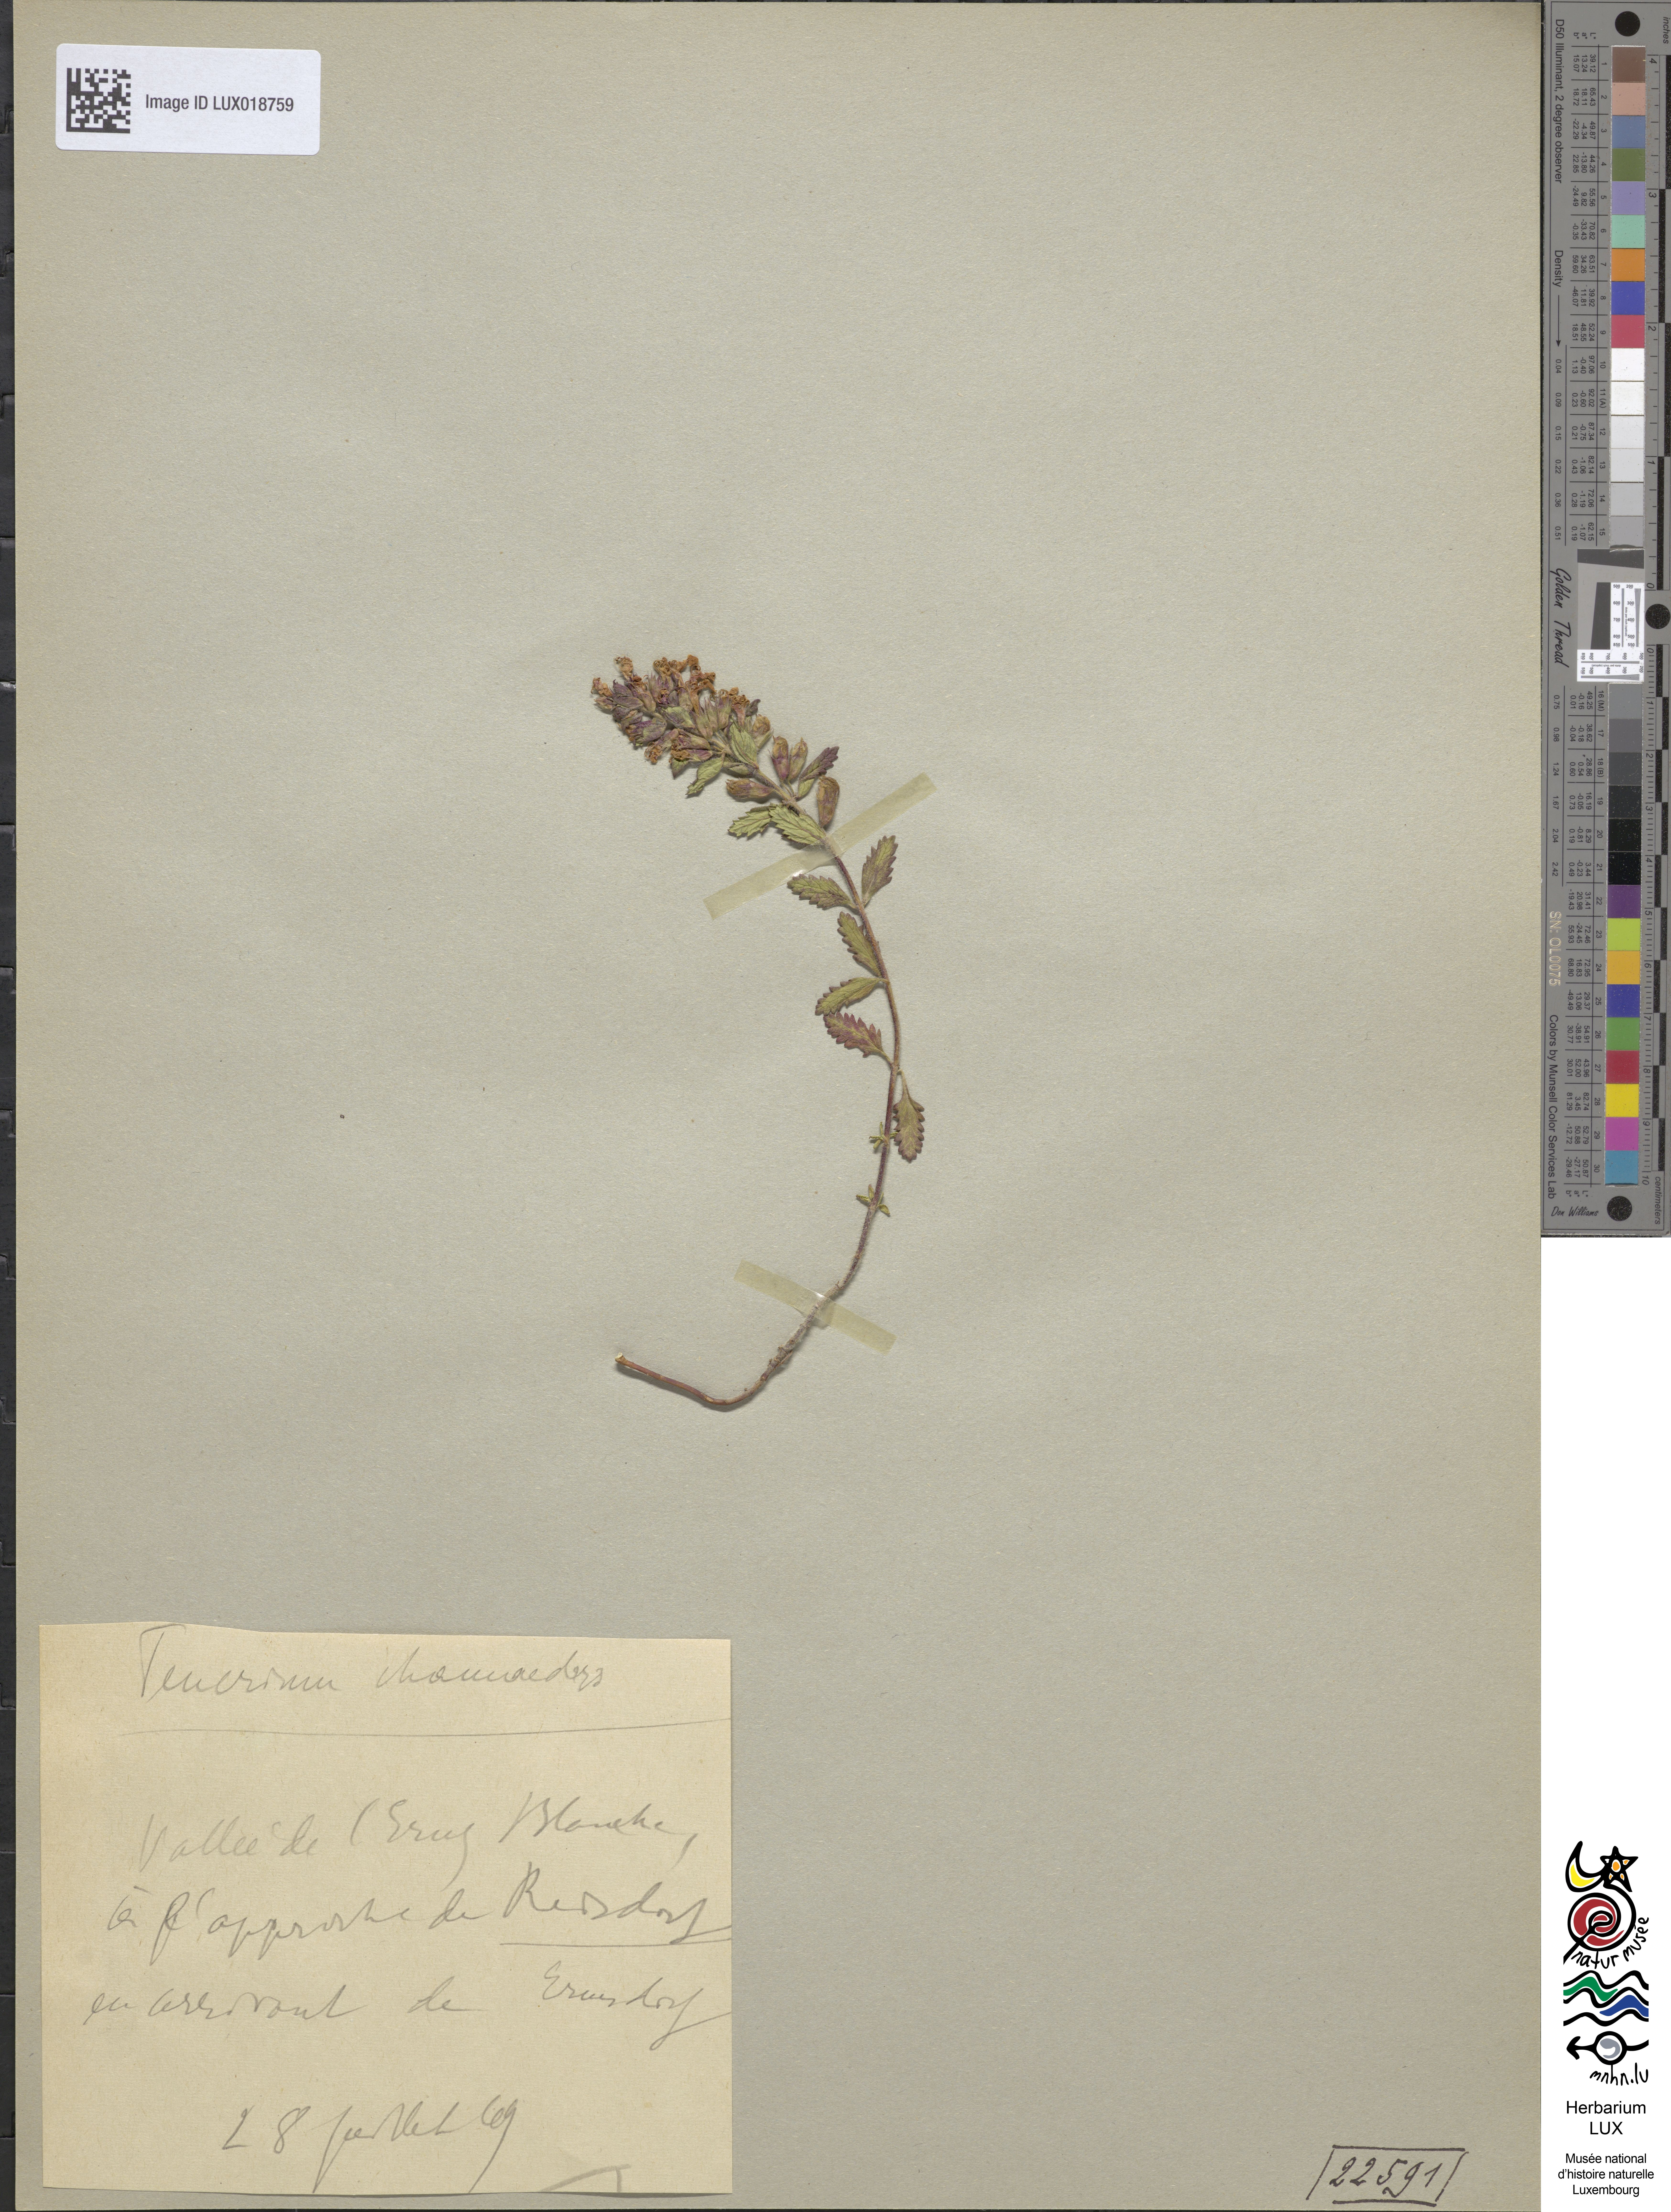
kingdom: Plantae
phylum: Tracheophyta
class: Magnoliopsida
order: Lamiales
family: Lamiaceae
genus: Teucrium
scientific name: Teucrium chamaedrys
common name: Wall germander
